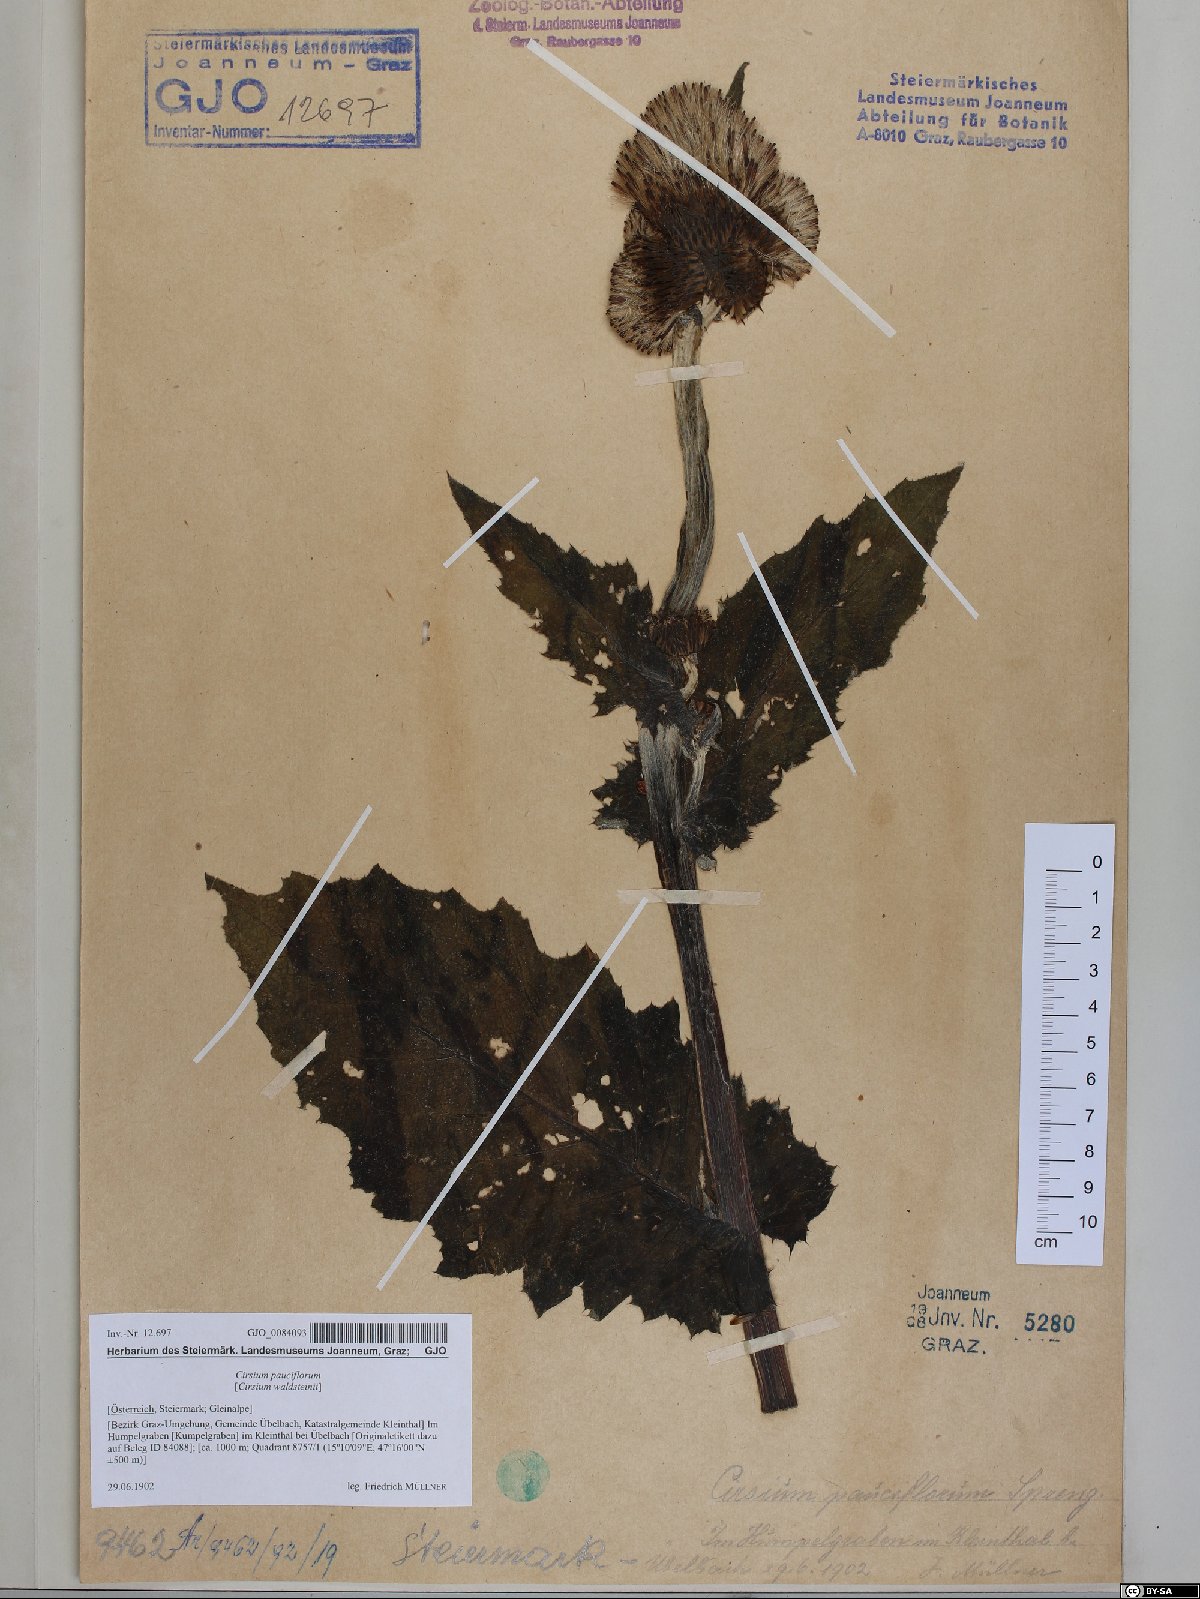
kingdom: Plantae
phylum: Tracheophyta
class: Magnoliopsida
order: Asterales
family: Asteraceae
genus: Cirsium
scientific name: Cirsium greimleri
